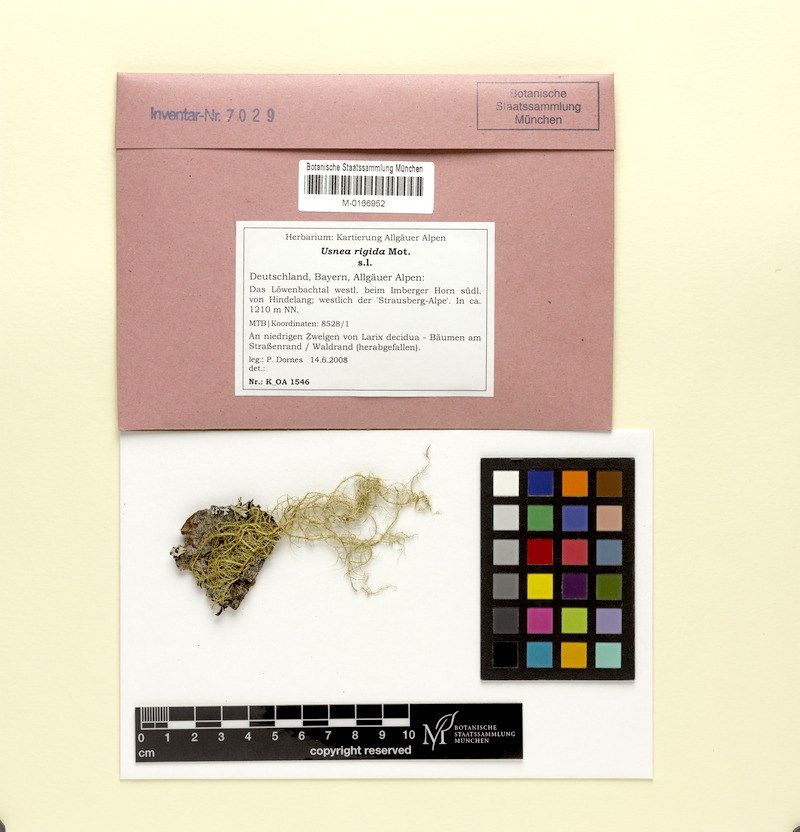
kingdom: Fungi
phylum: Ascomycota
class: Lecanoromycetes
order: Lecanorales
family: Parmeliaceae
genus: Usnea
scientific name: Usnea quasirigida
